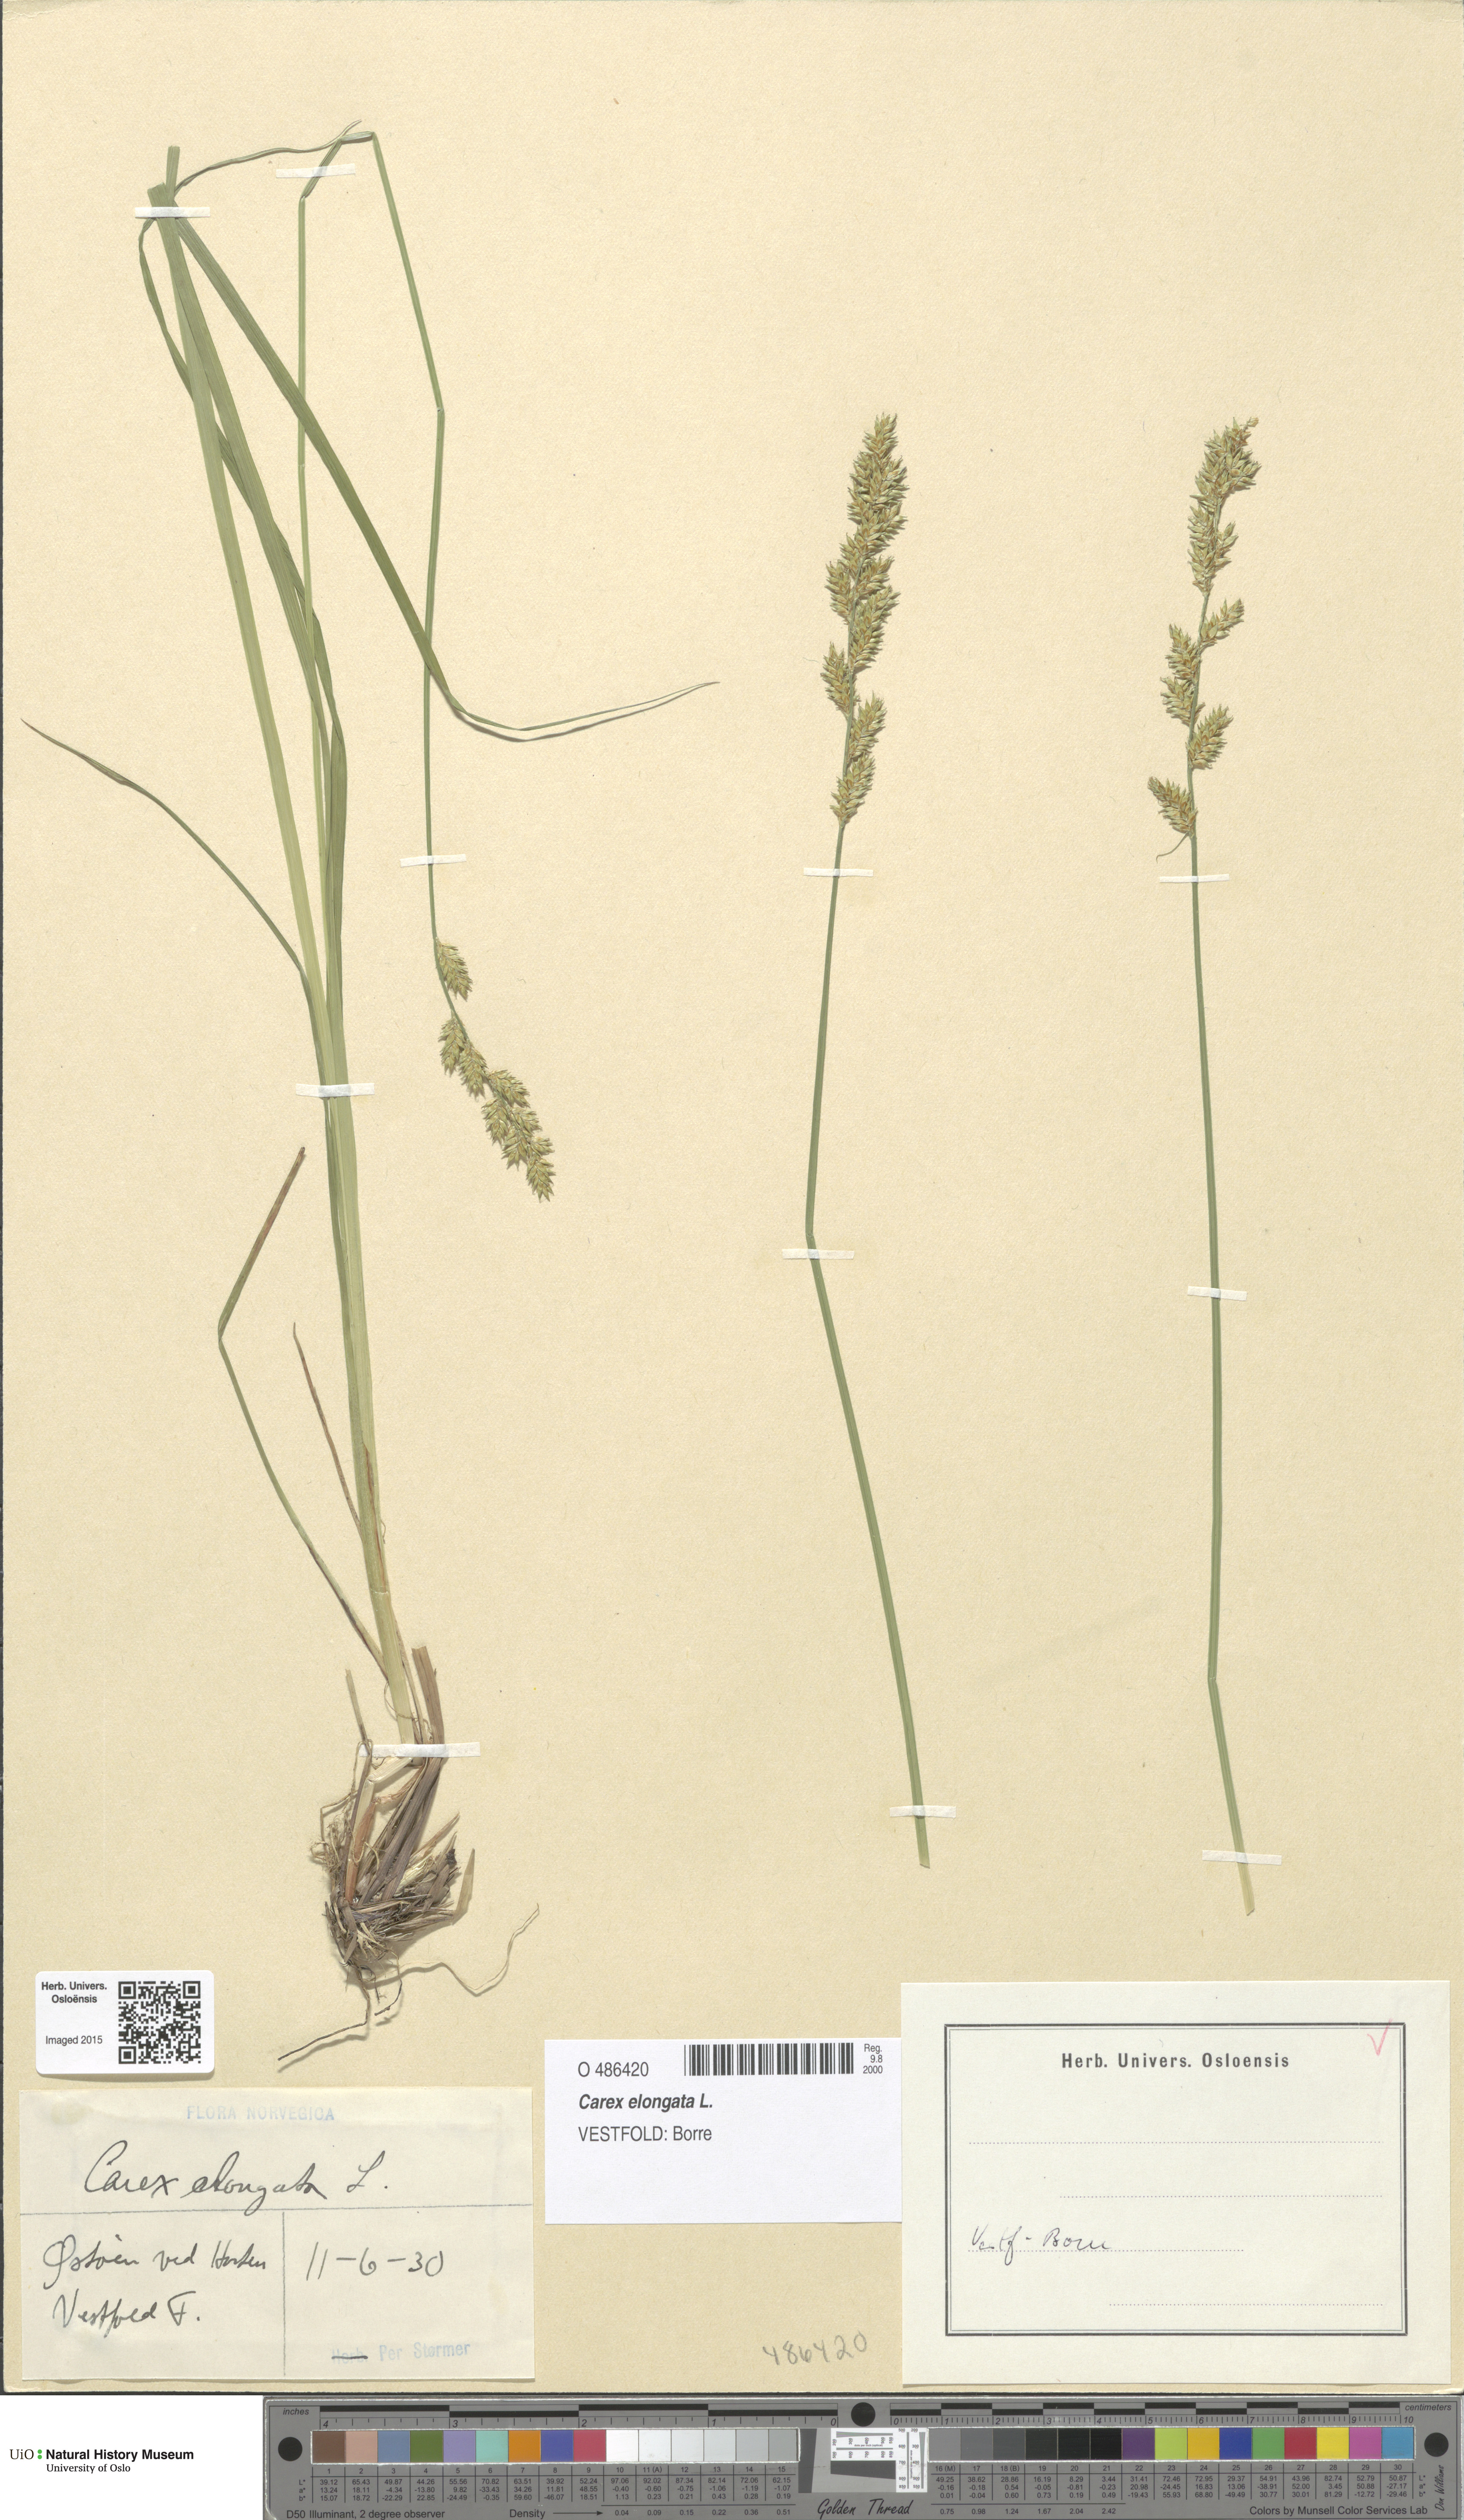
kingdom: Plantae
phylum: Tracheophyta
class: Liliopsida
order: Poales
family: Cyperaceae
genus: Carex
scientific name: Carex elongata
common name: Elongated sedge
